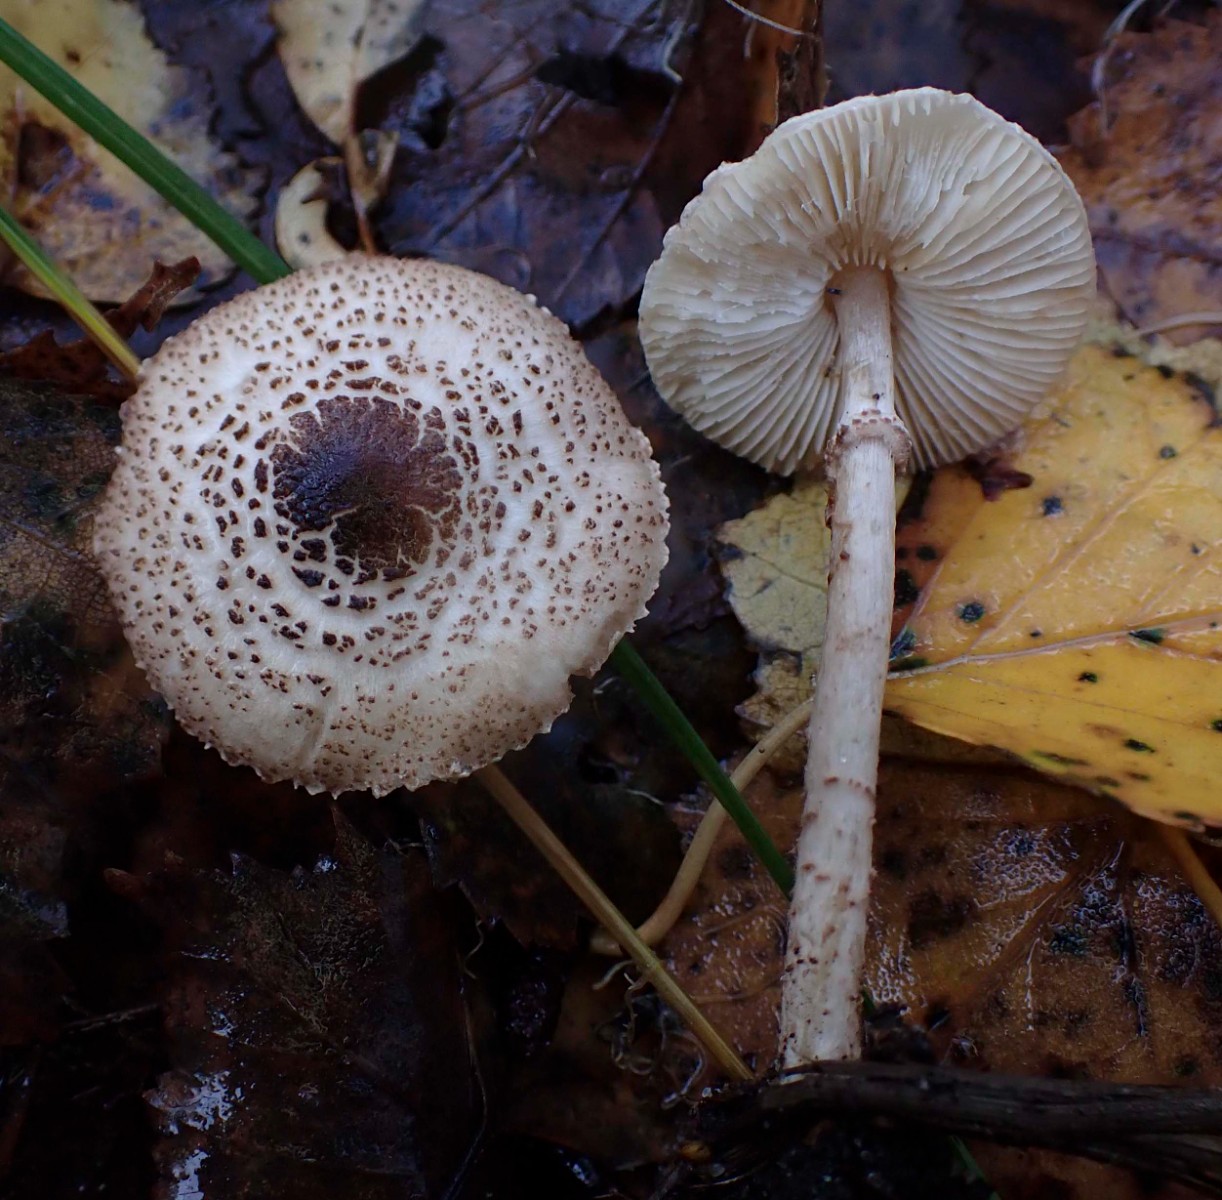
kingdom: Fungi
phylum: Basidiomycota
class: Agaricomycetes
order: Agaricales
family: Agaricaceae
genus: Lepiota
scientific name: Lepiota felina
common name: sortskællet parasolhat
